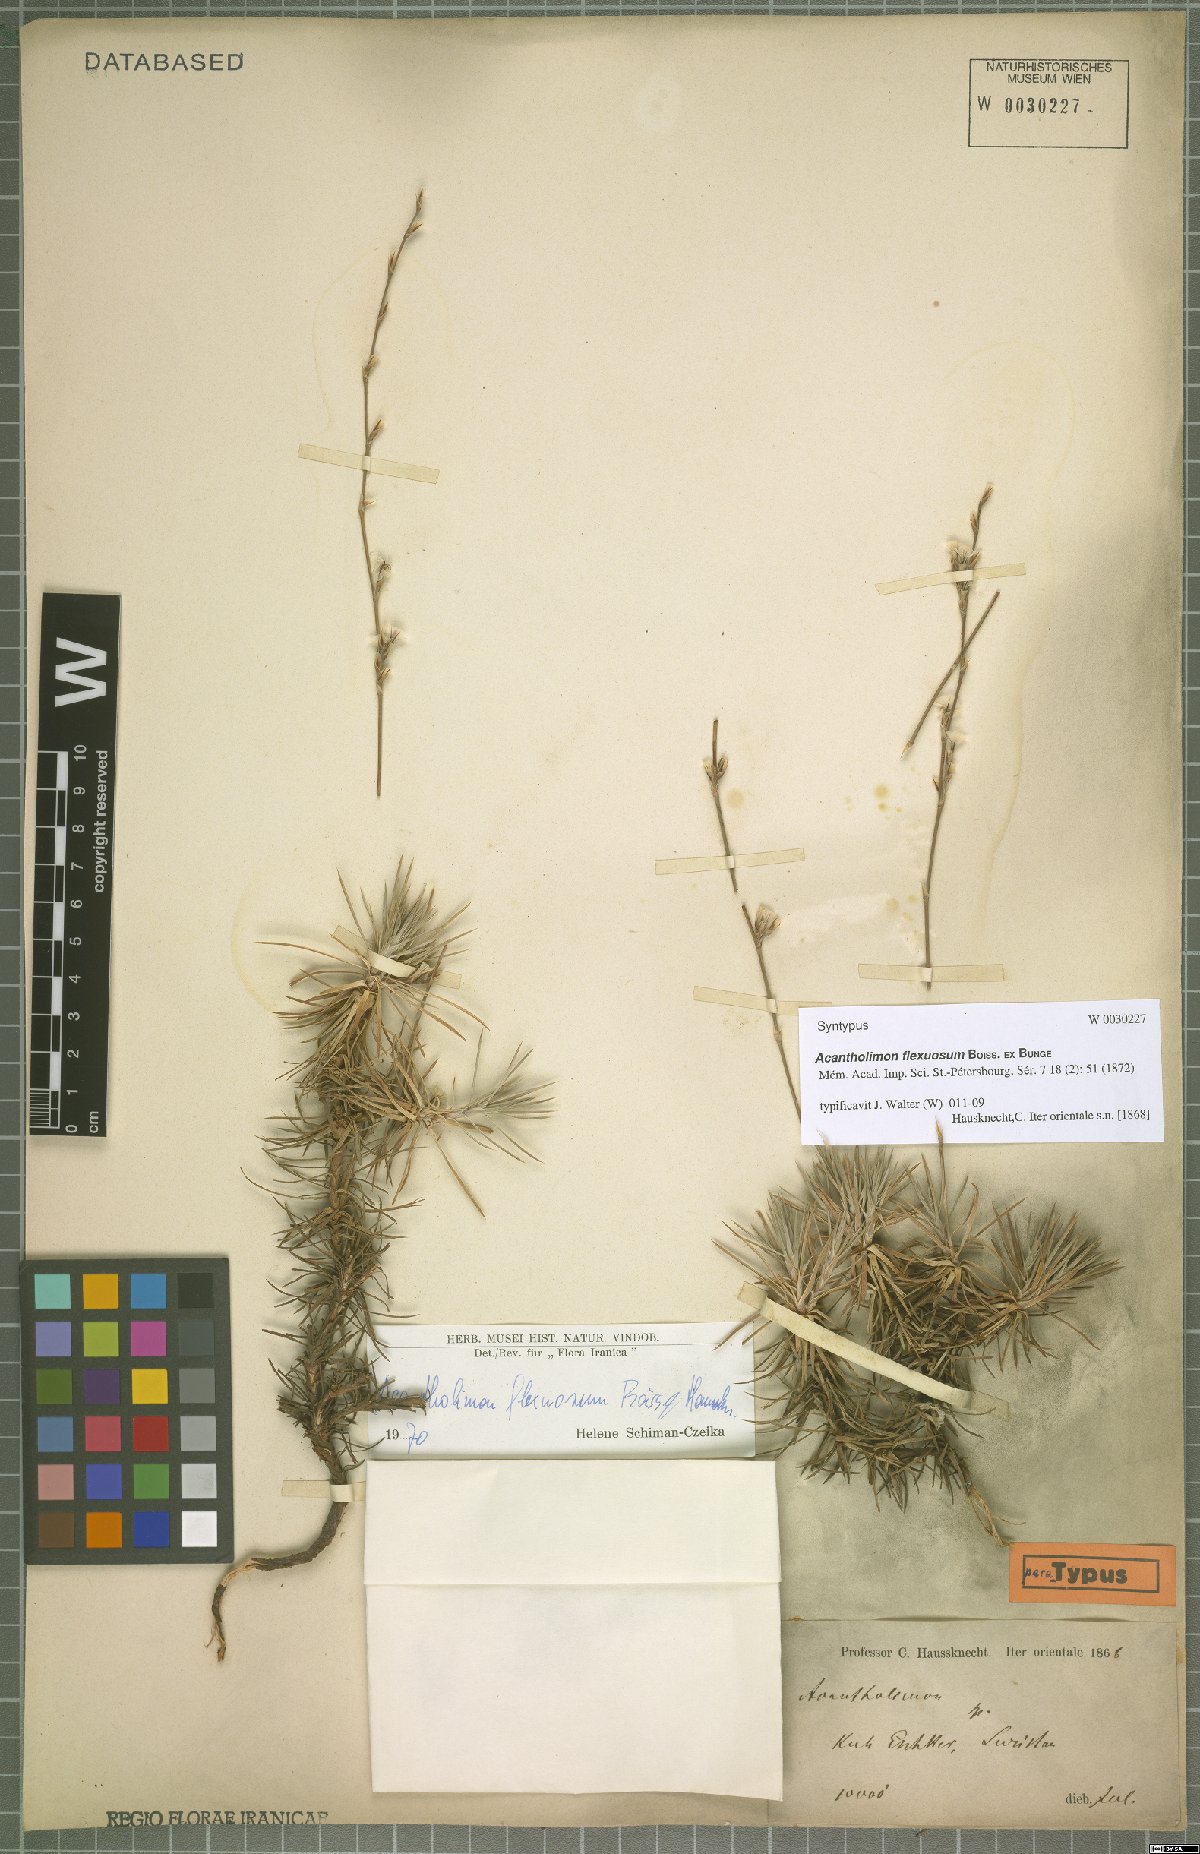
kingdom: Plantae
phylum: Tracheophyta
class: Magnoliopsida
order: Caryophyllales
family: Plumbaginaceae
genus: Acantholimon
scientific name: Acantholimon flexuosum
